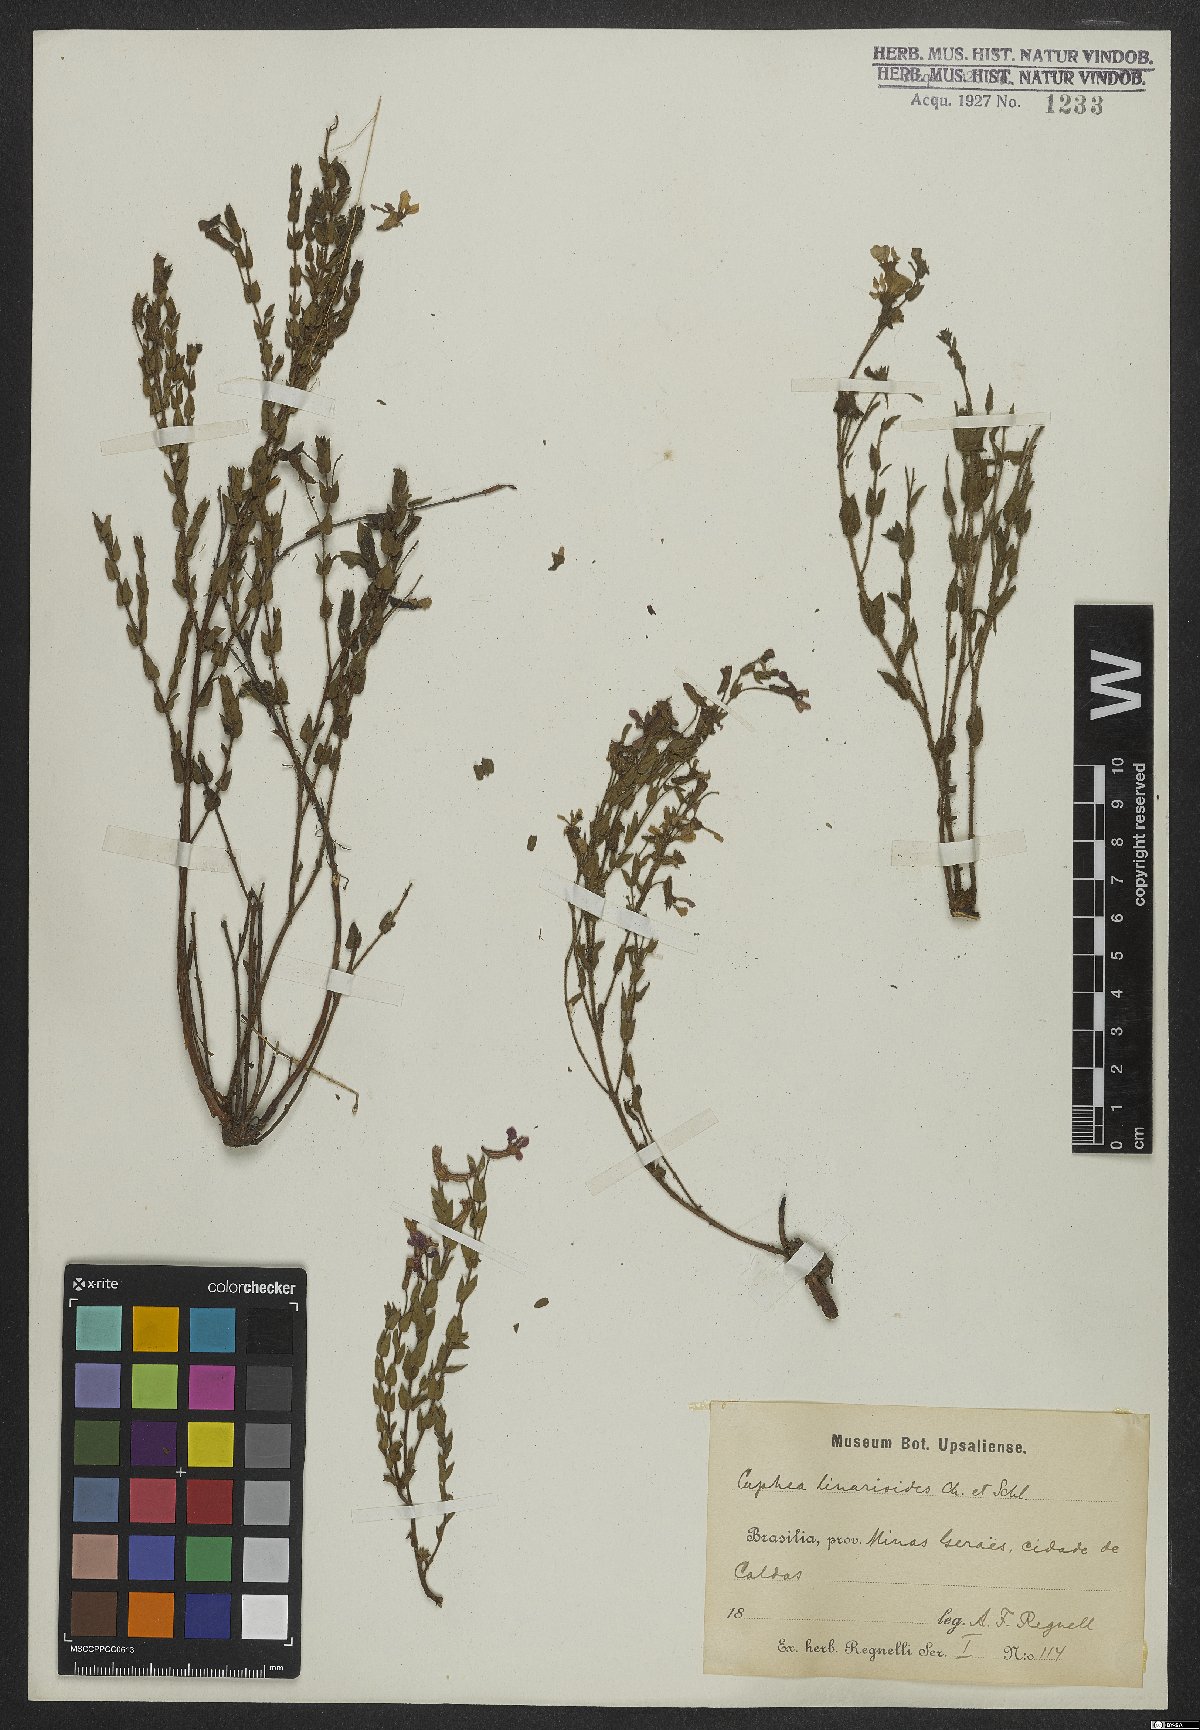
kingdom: Plantae
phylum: Tracheophyta
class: Magnoliopsida
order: Myrtales
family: Lythraceae
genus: Cuphea
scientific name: Cuphea linarioides
